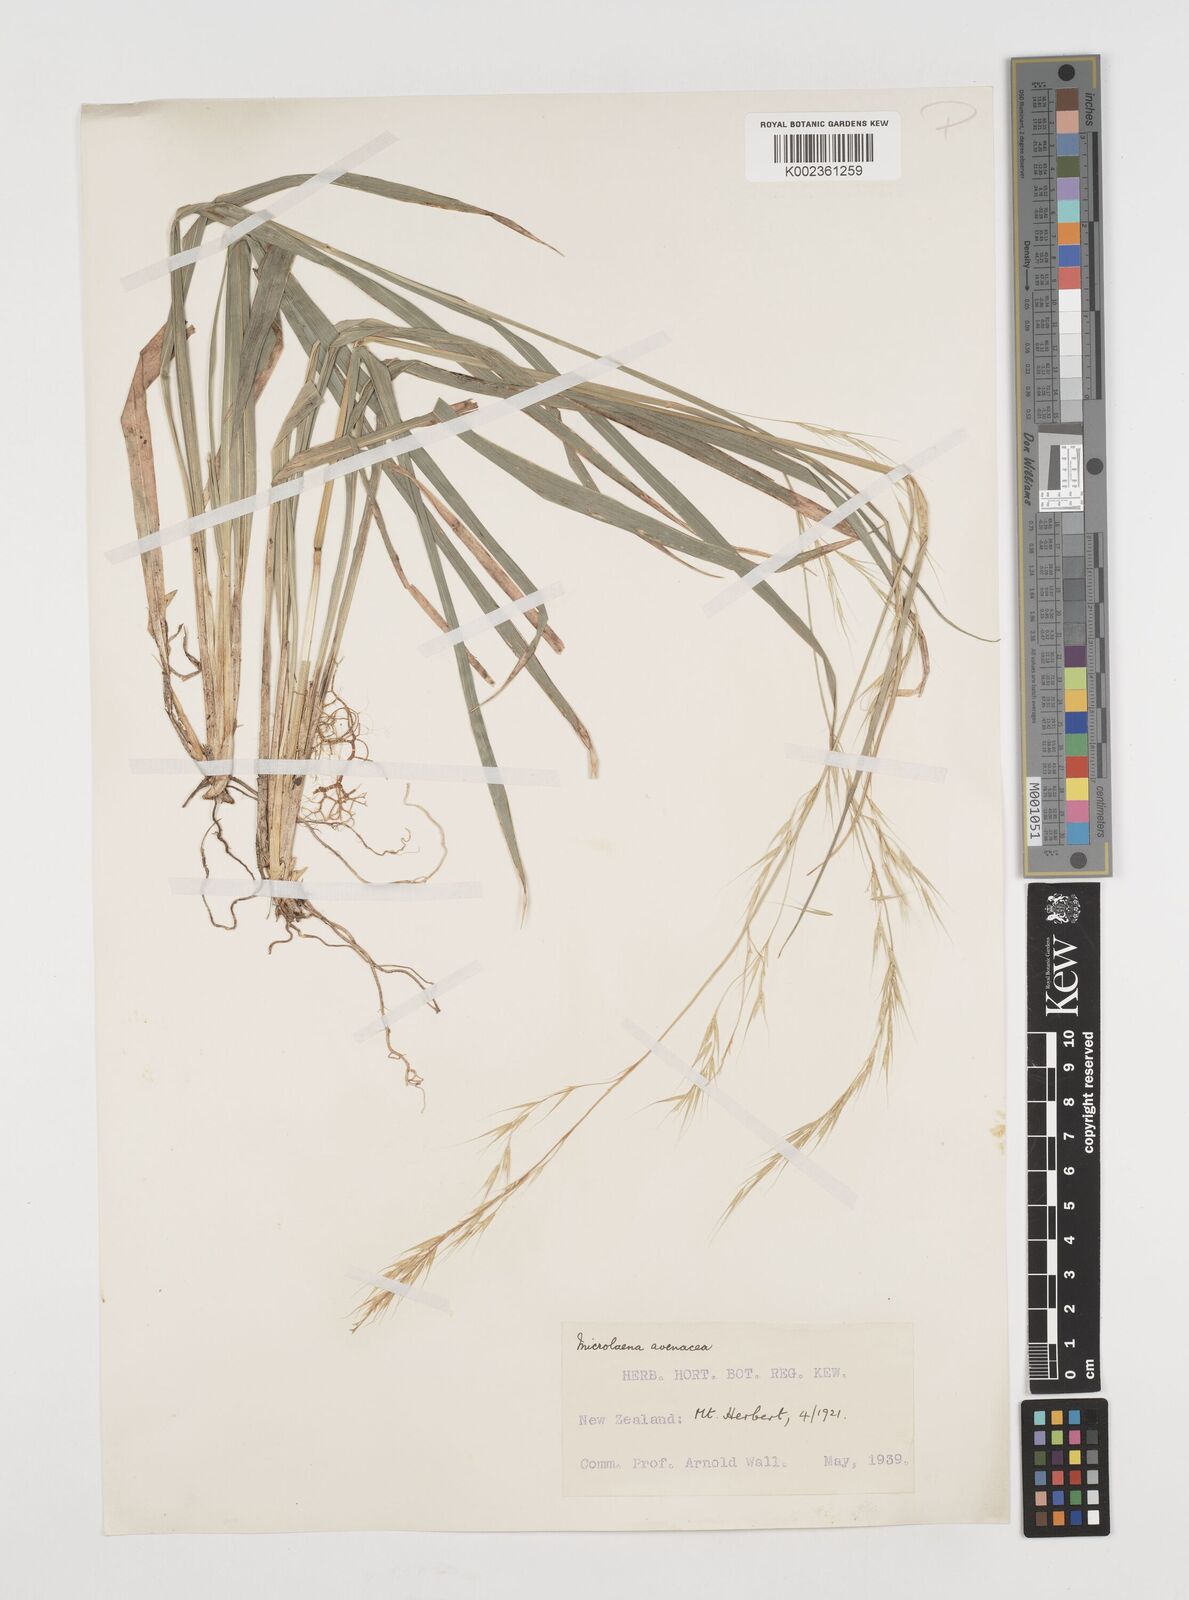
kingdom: Plantae
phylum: Tracheophyta
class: Liliopsida
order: Poales
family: Poaceae
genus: Ehrharta
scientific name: Ehrharta diplax
